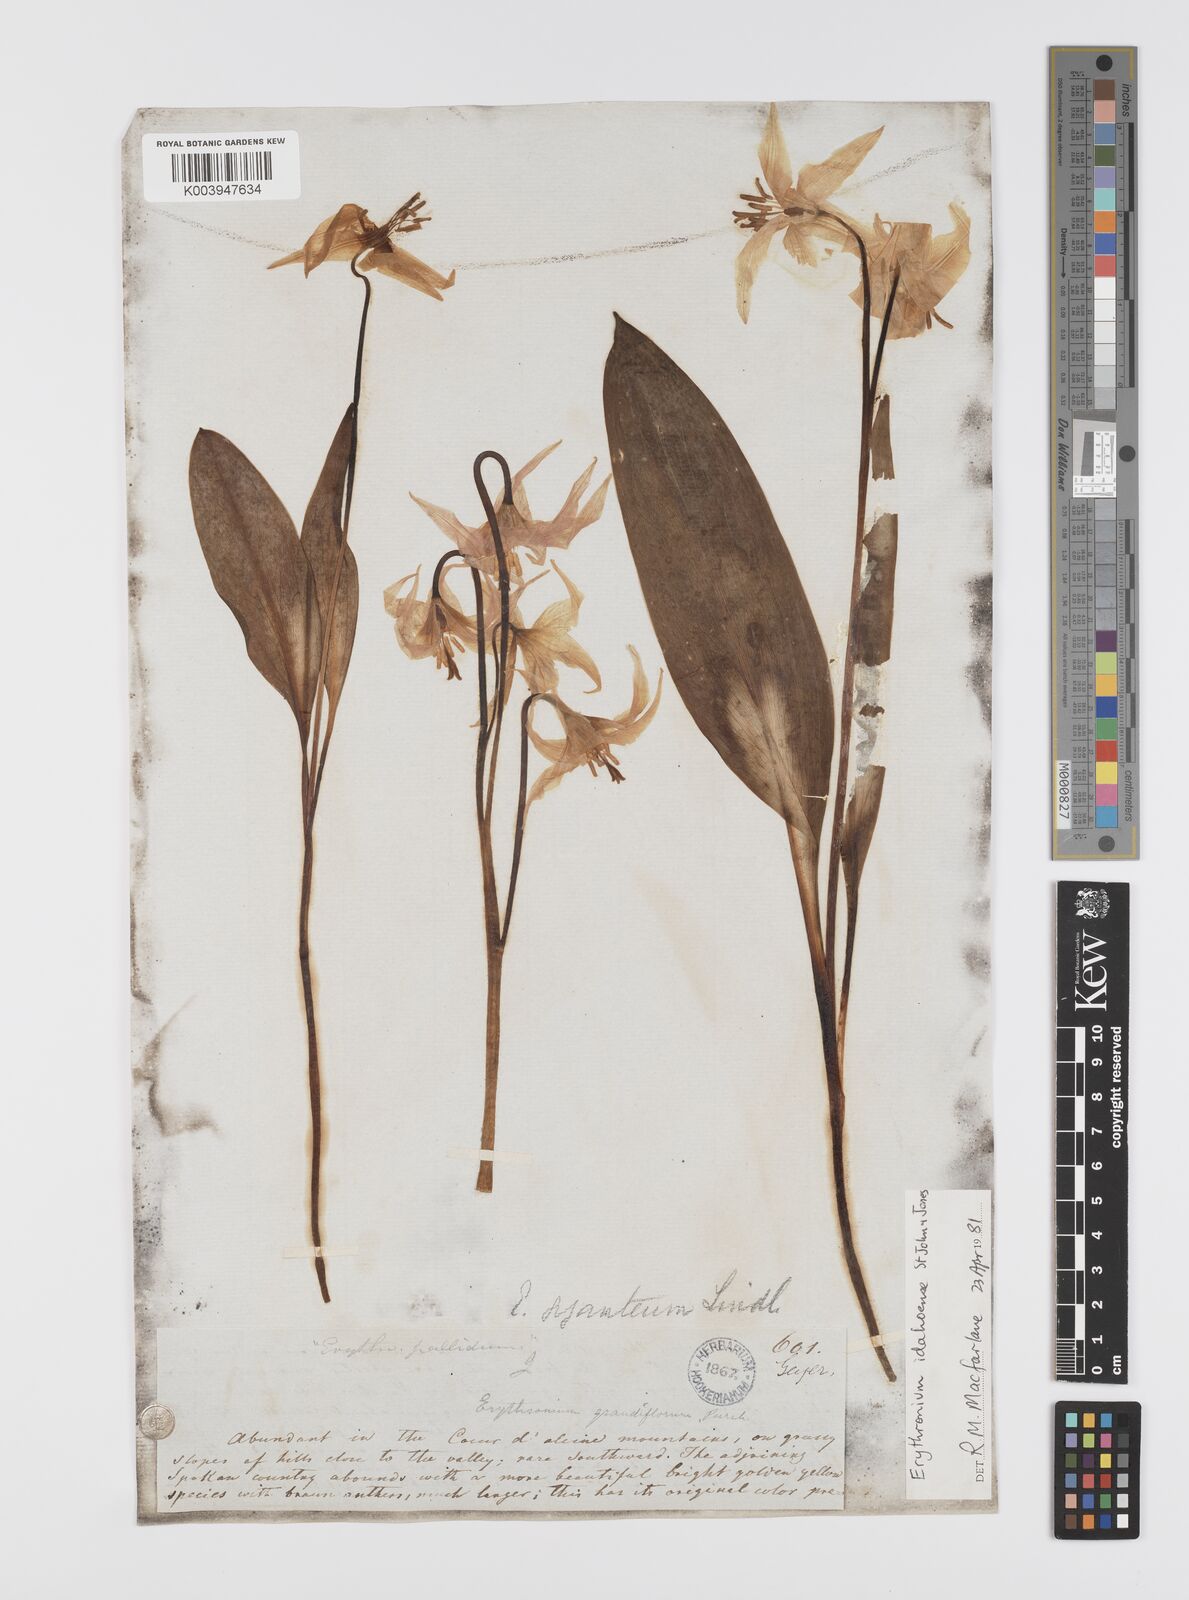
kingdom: Plantae
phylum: Tracheophyta
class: Liliopsida
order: Liliales
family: Liliaceae
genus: Erythronium
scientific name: Erythronium idahoense
